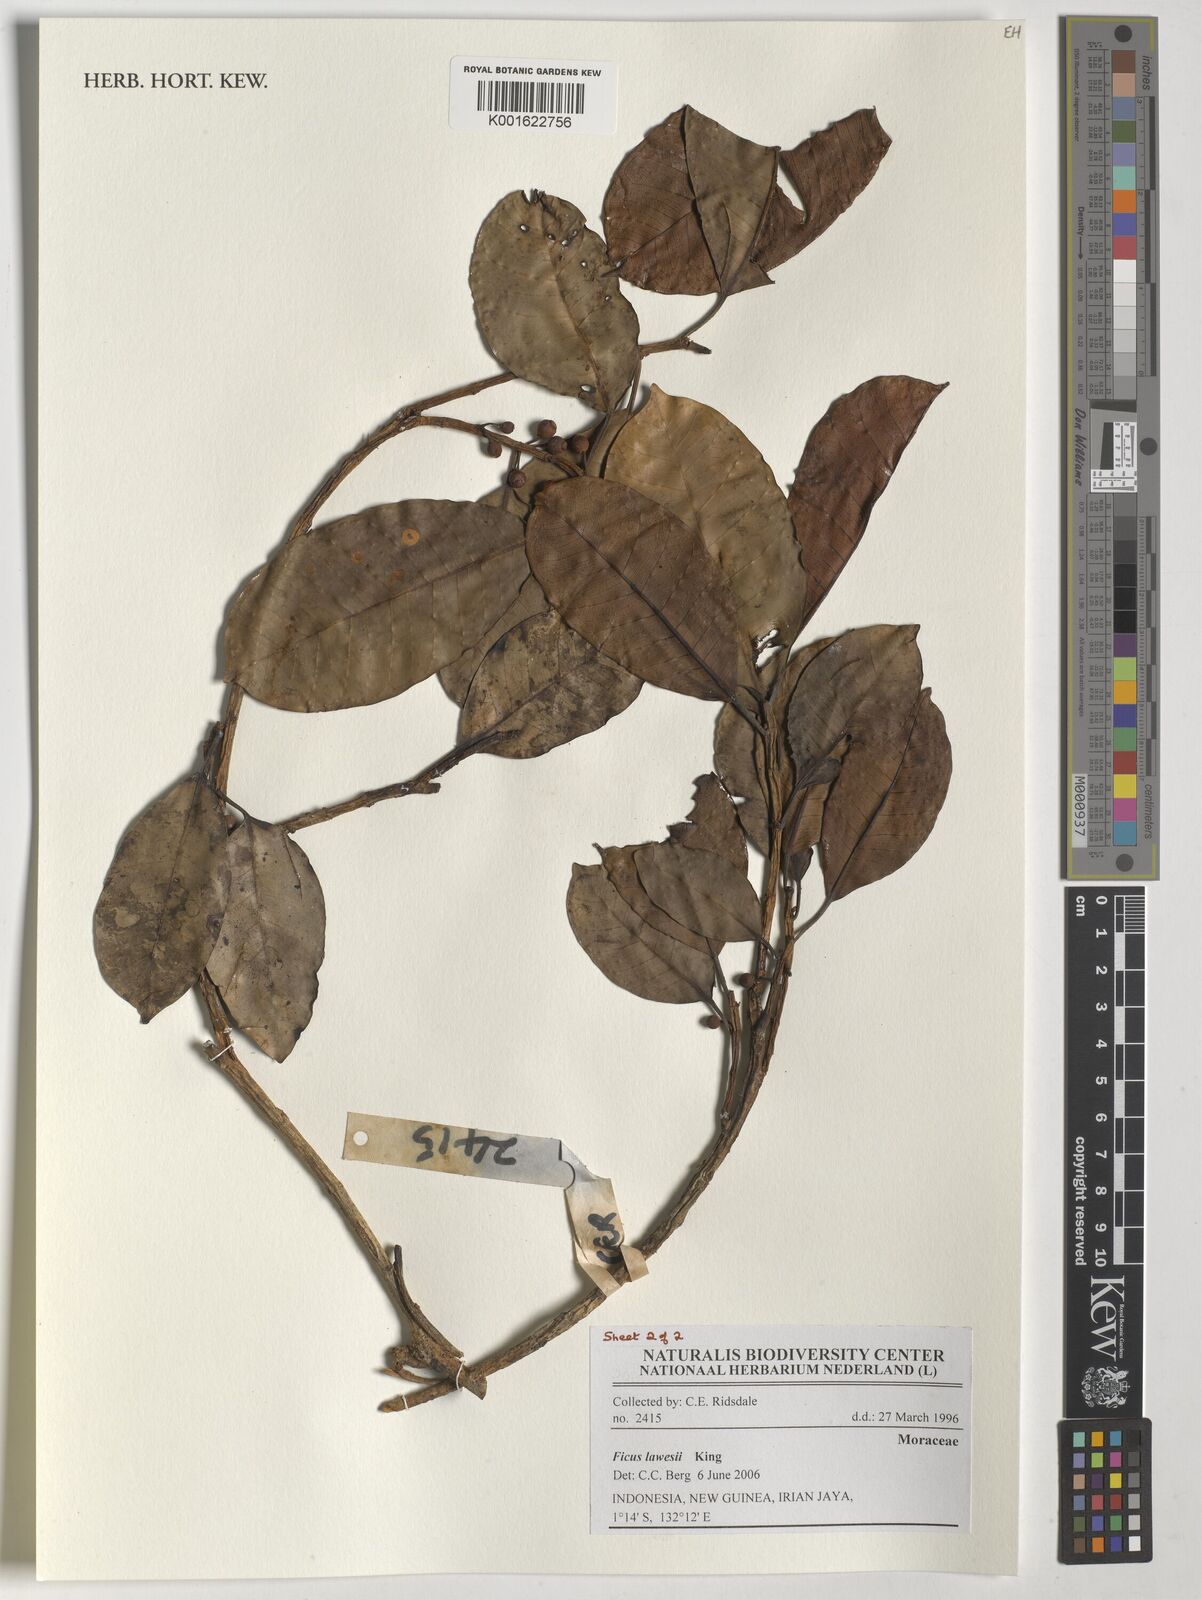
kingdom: Plantae
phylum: Tracheophyta
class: Magnoliopsida
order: Rosales
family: Moraceae
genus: Ficus
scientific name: Ficus lawesii
